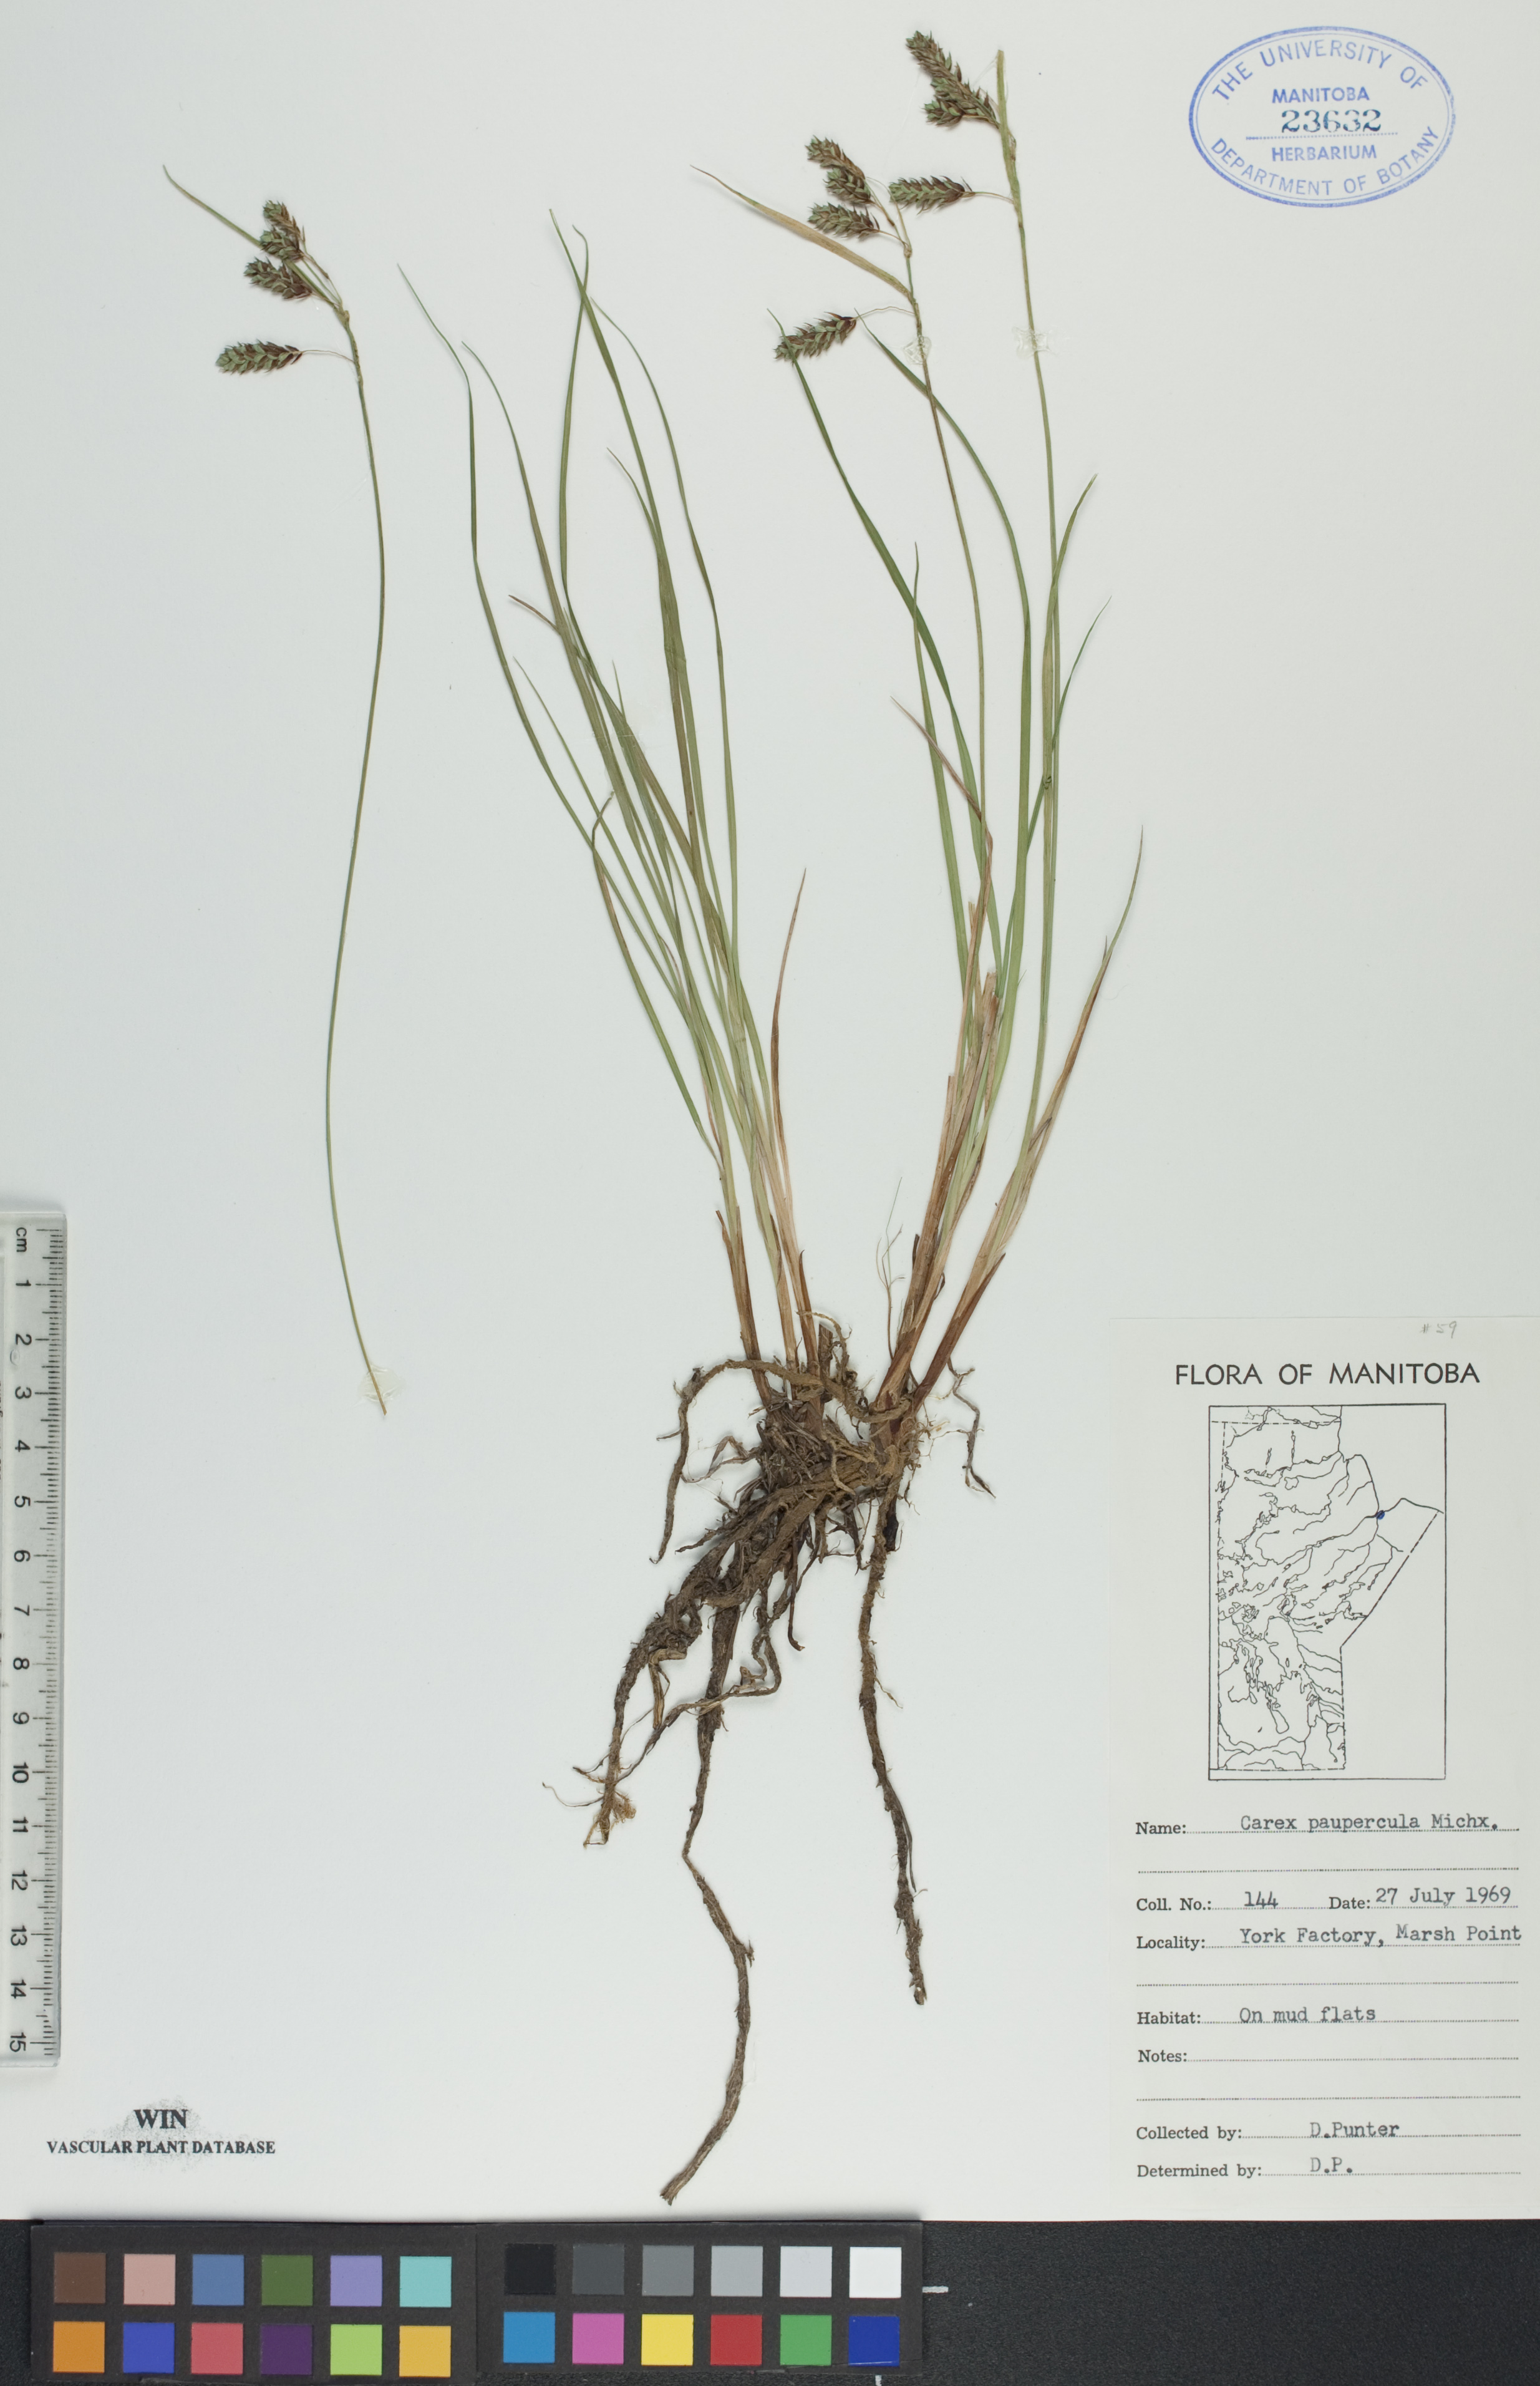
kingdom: Plantae
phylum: Tracheophyta
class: Liliopsida
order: Poales
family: Cyperaceae
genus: Carex
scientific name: Carex magellanica
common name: Bog sedge
